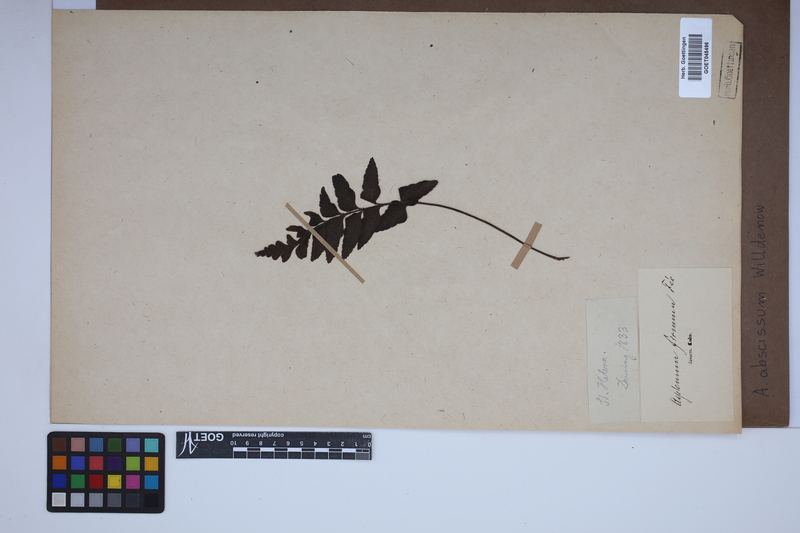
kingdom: Plantae
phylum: Tracheophyta
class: Polypodiopsida
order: Polypodiales
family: Aspleniaceae
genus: Asplenium
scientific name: Asplenium abscissum
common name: Cutleaf spleenwort
